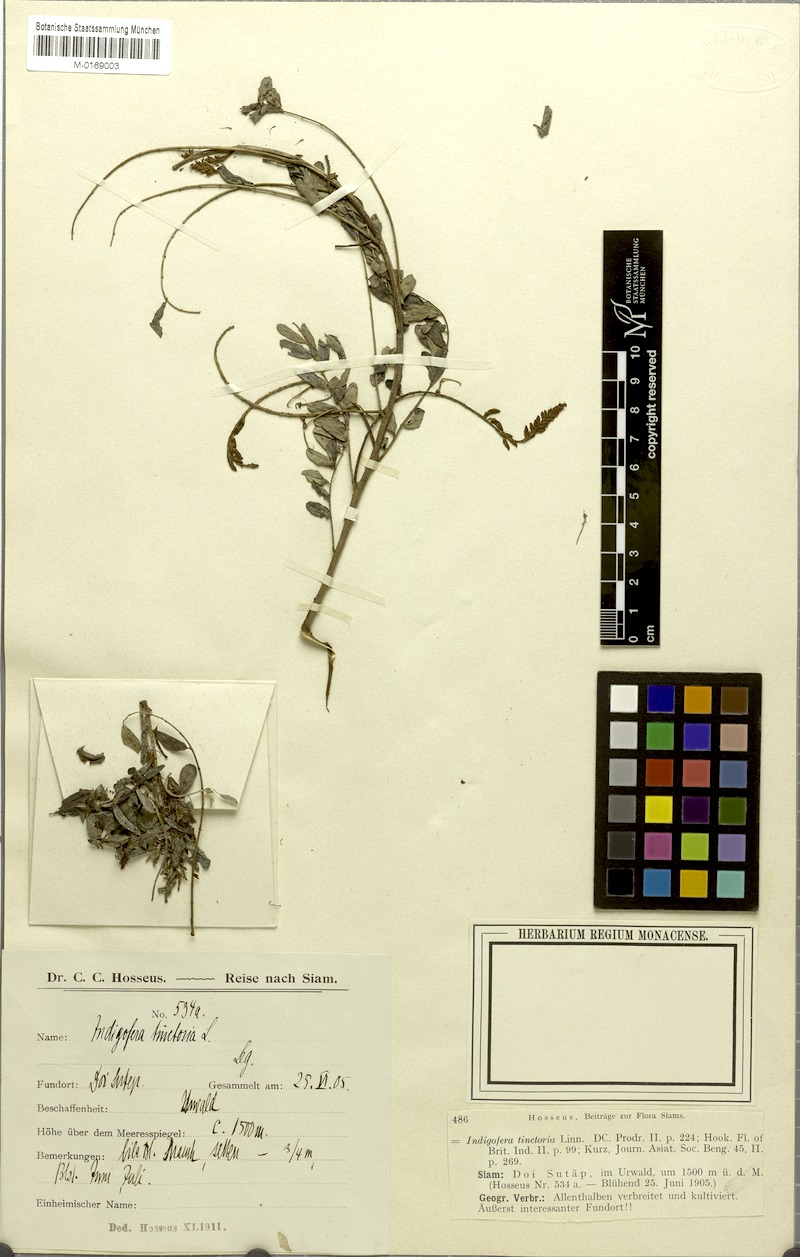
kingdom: Plantae
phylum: Tracheophyta
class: Magnoliopsida
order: Fabales
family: Fabaceae
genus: Indigofera
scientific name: Indigofera tinctoria
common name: True indigo
